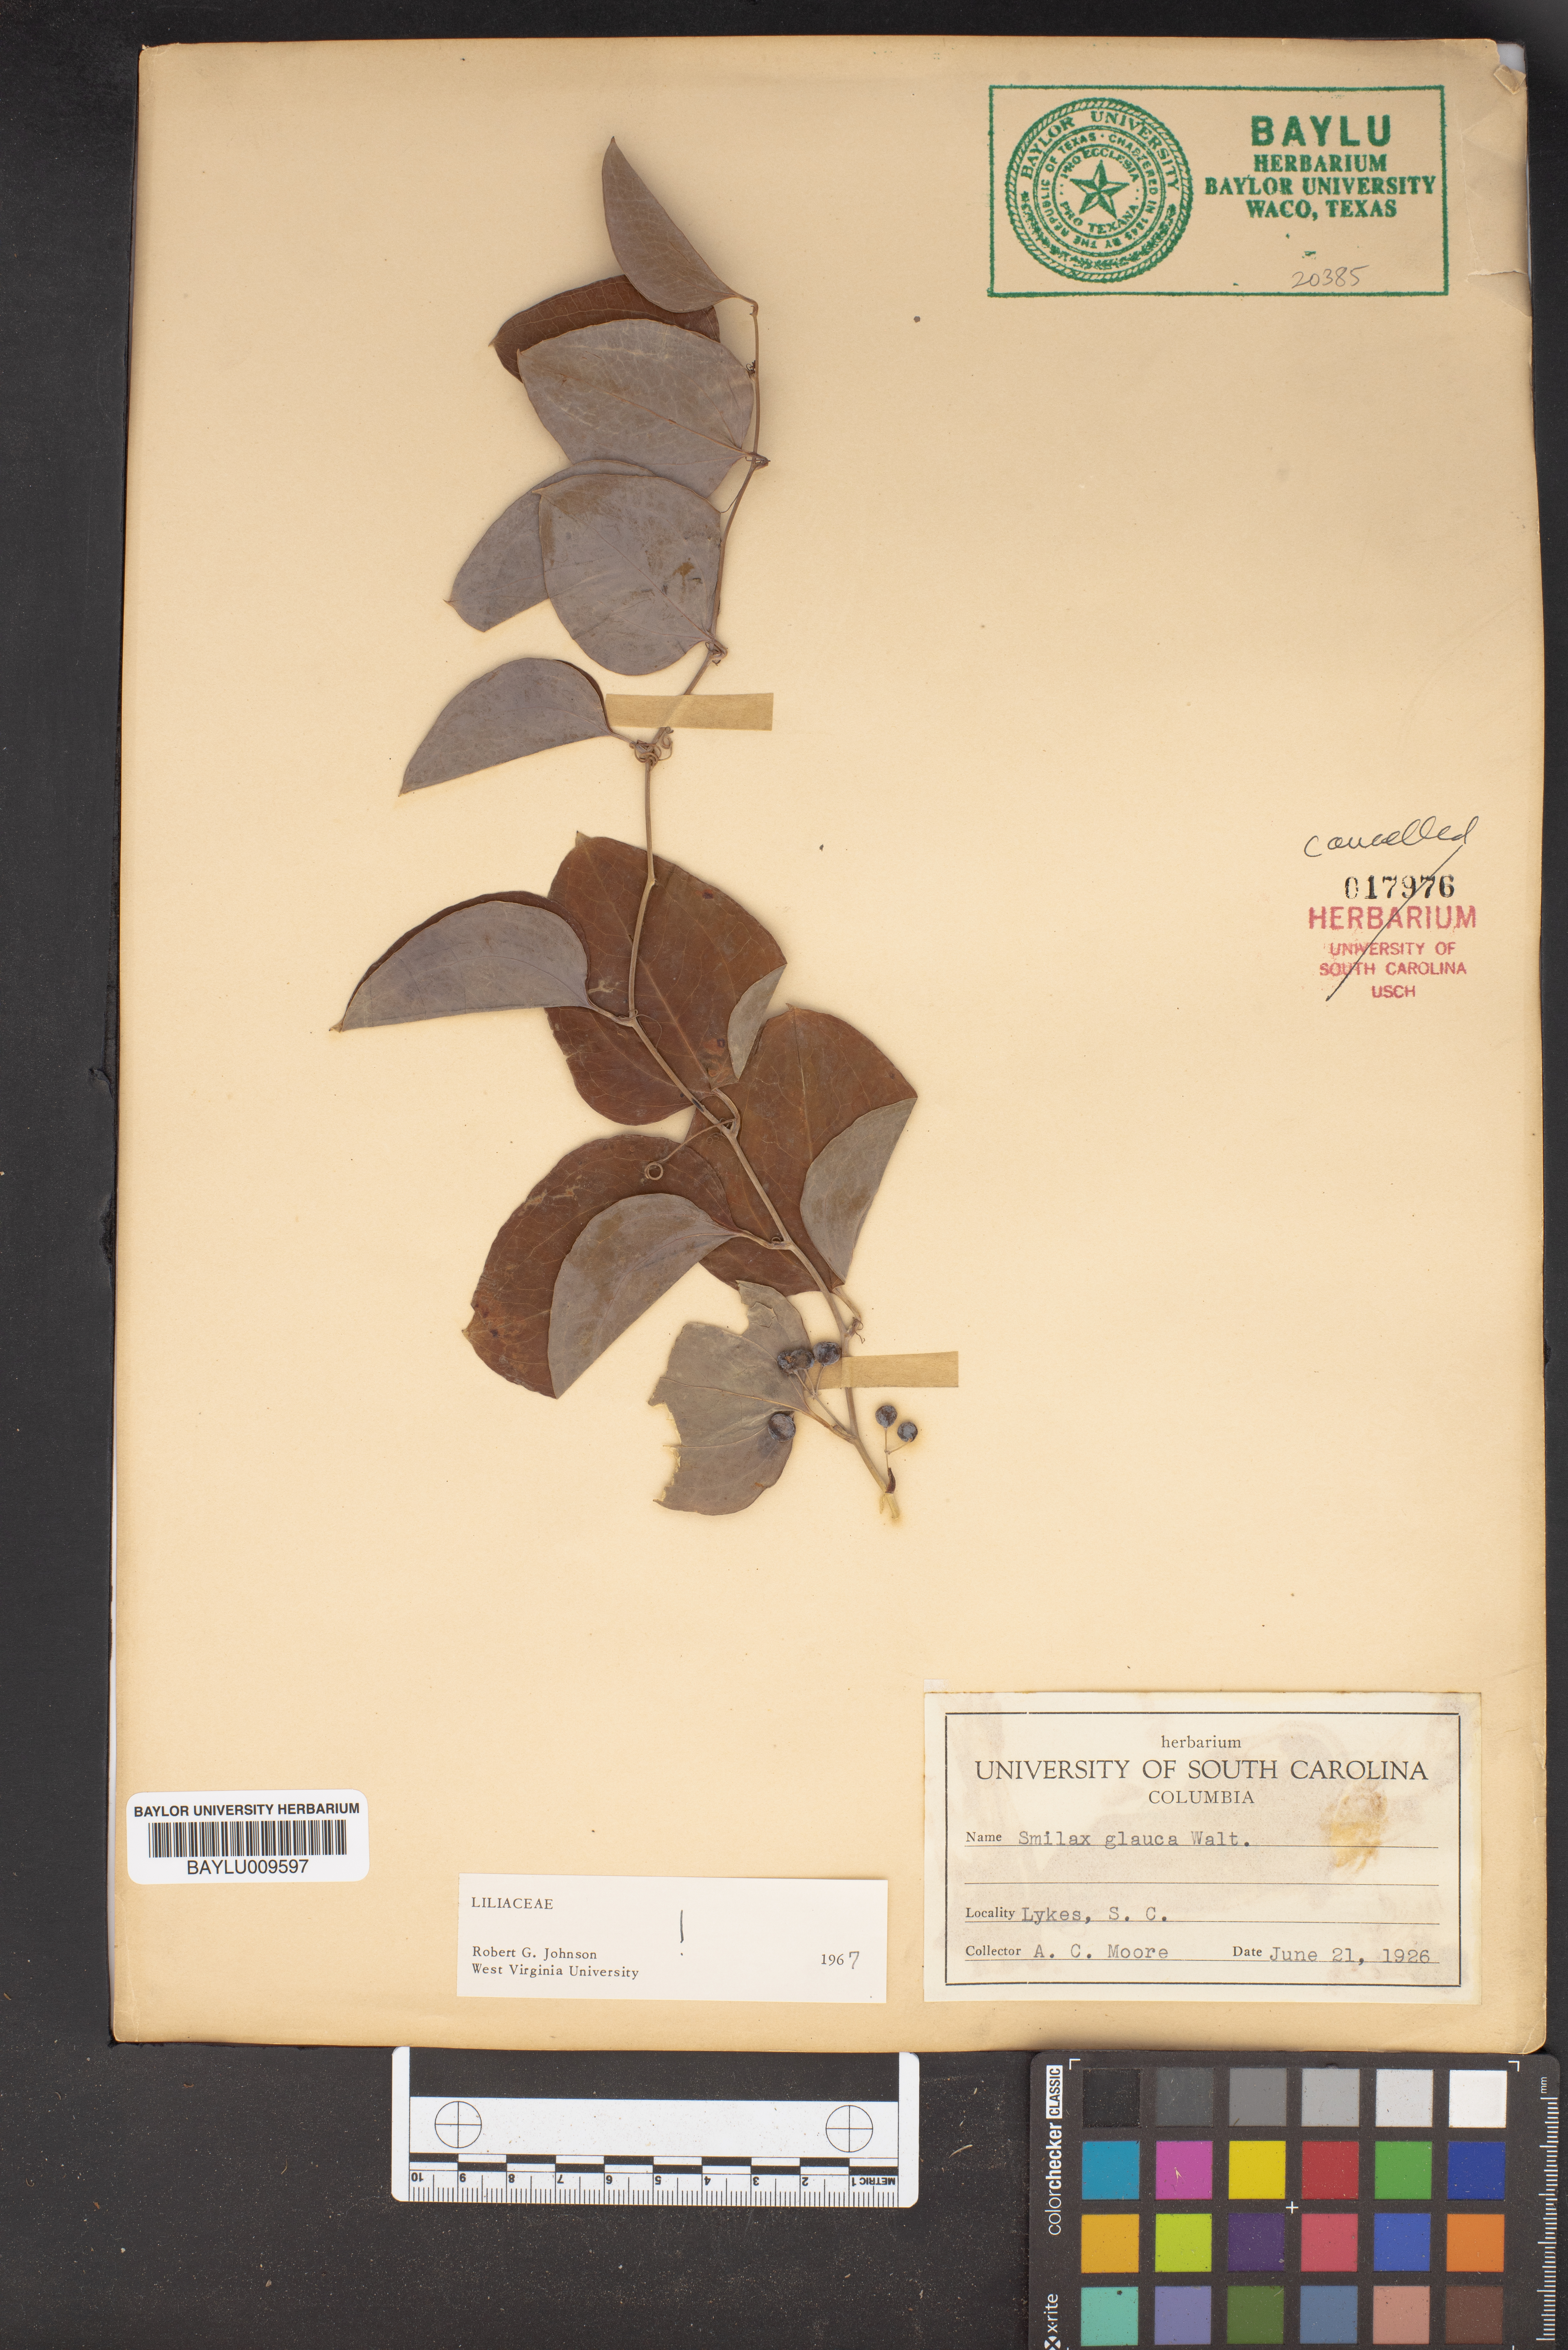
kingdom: Plantae
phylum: Tracheophyta
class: Liliopsida
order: Liliales
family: Smilacaceae
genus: Smilax
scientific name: Smilax glauca
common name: Cat greenbrier
